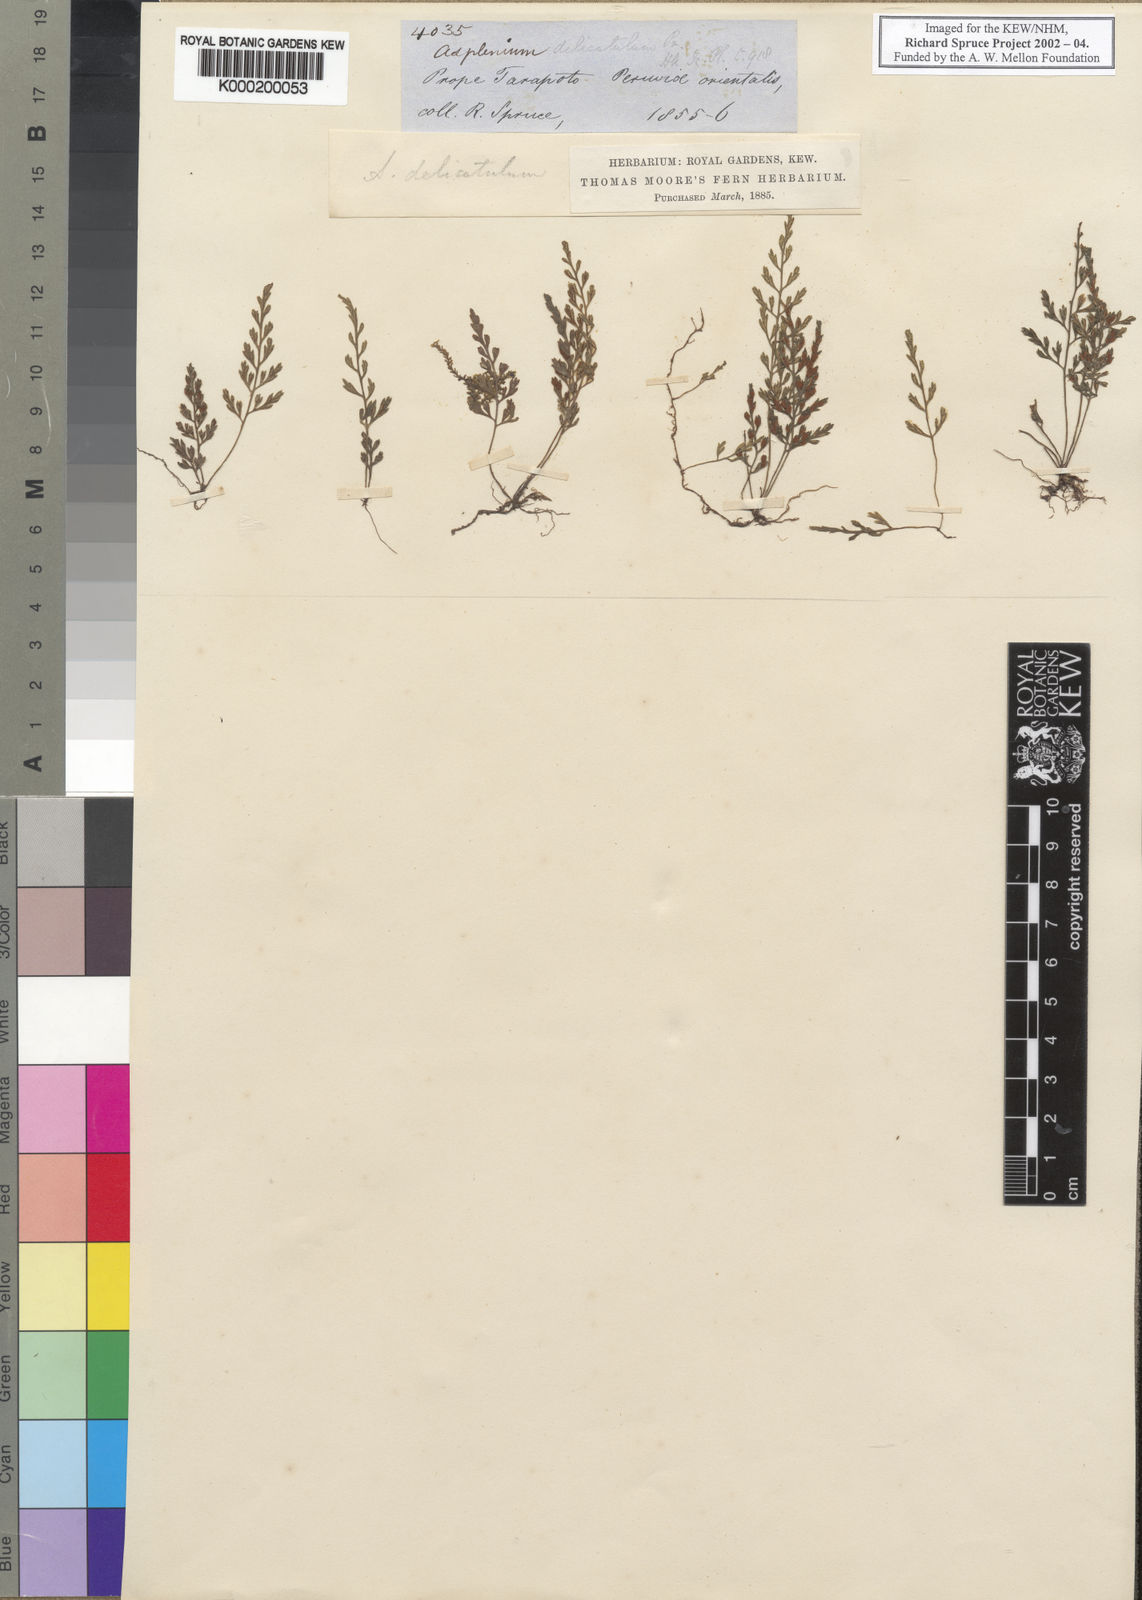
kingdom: Plantae
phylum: Tracheophyta
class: Polypodiopsida
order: Polypodiales
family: Aspleniaceae
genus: Asplenium
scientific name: Asplenium delicatulum
